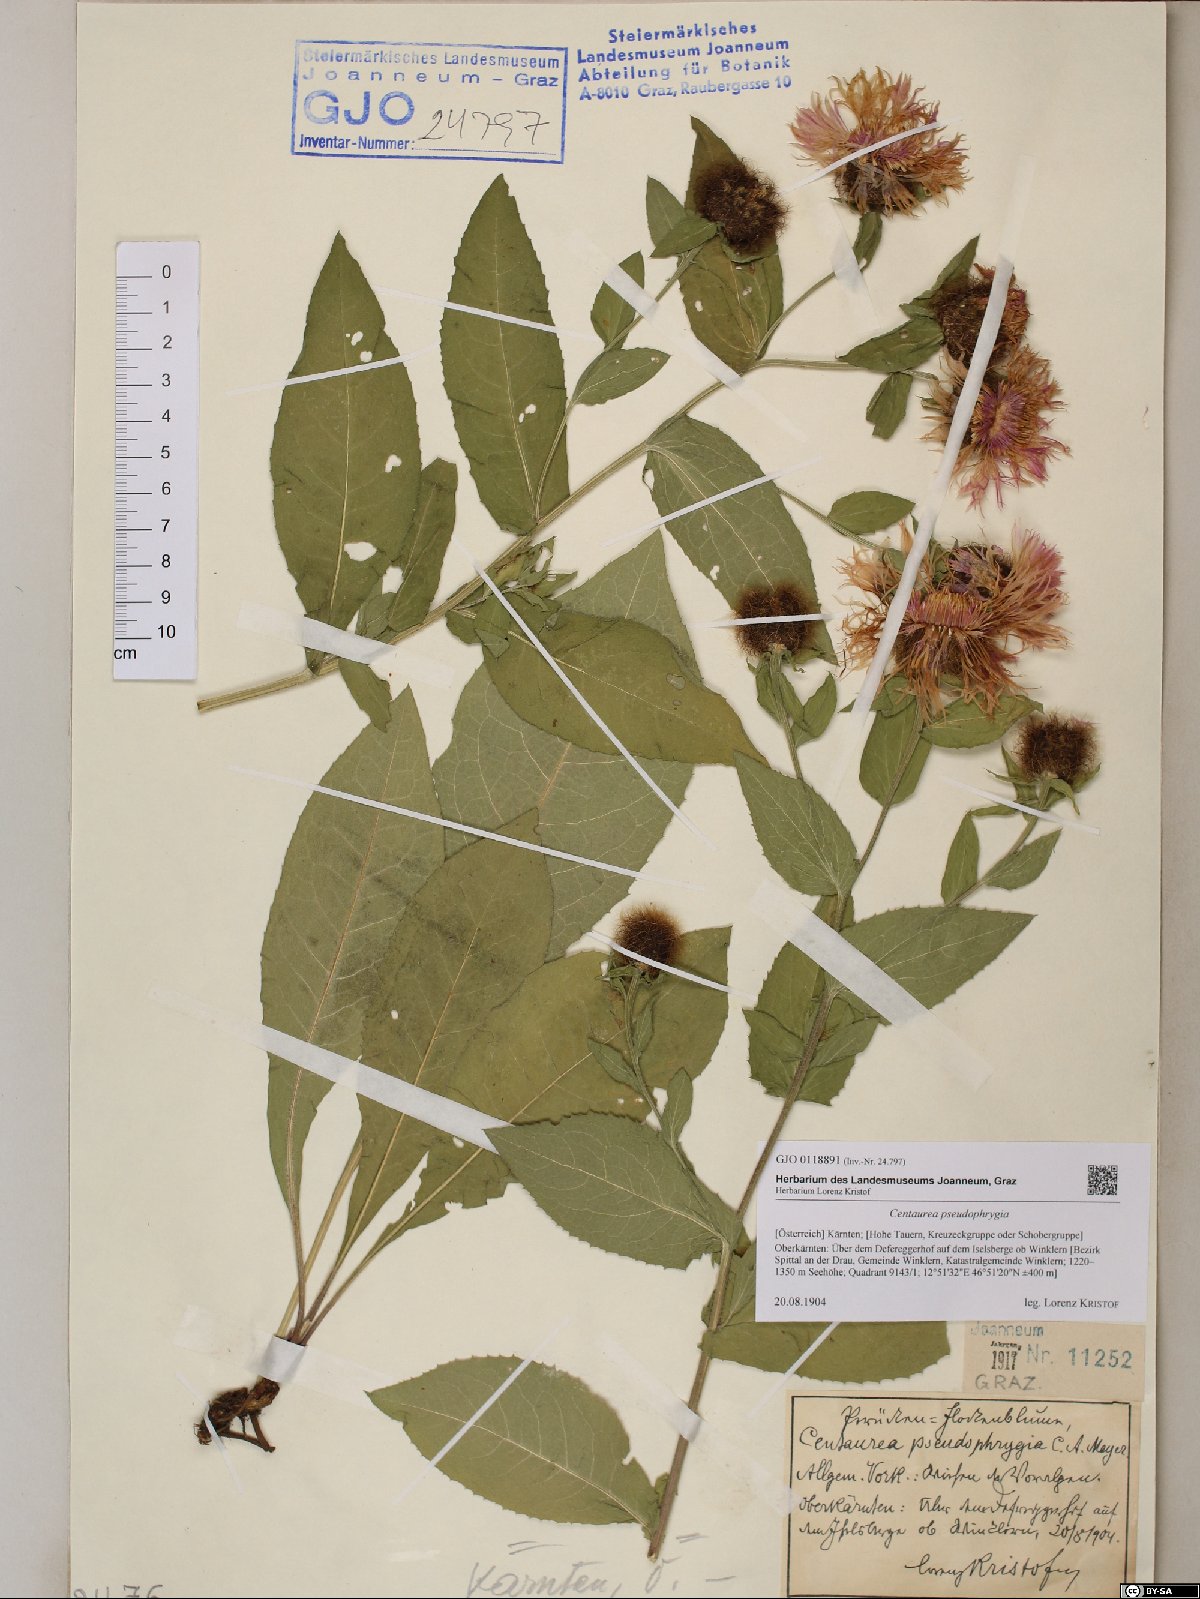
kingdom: Plantae
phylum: Tracheophyta
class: Magnoliopsida
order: Asterales
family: Asteraceae
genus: Centaurea
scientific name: Centaurea pseudophrygia
